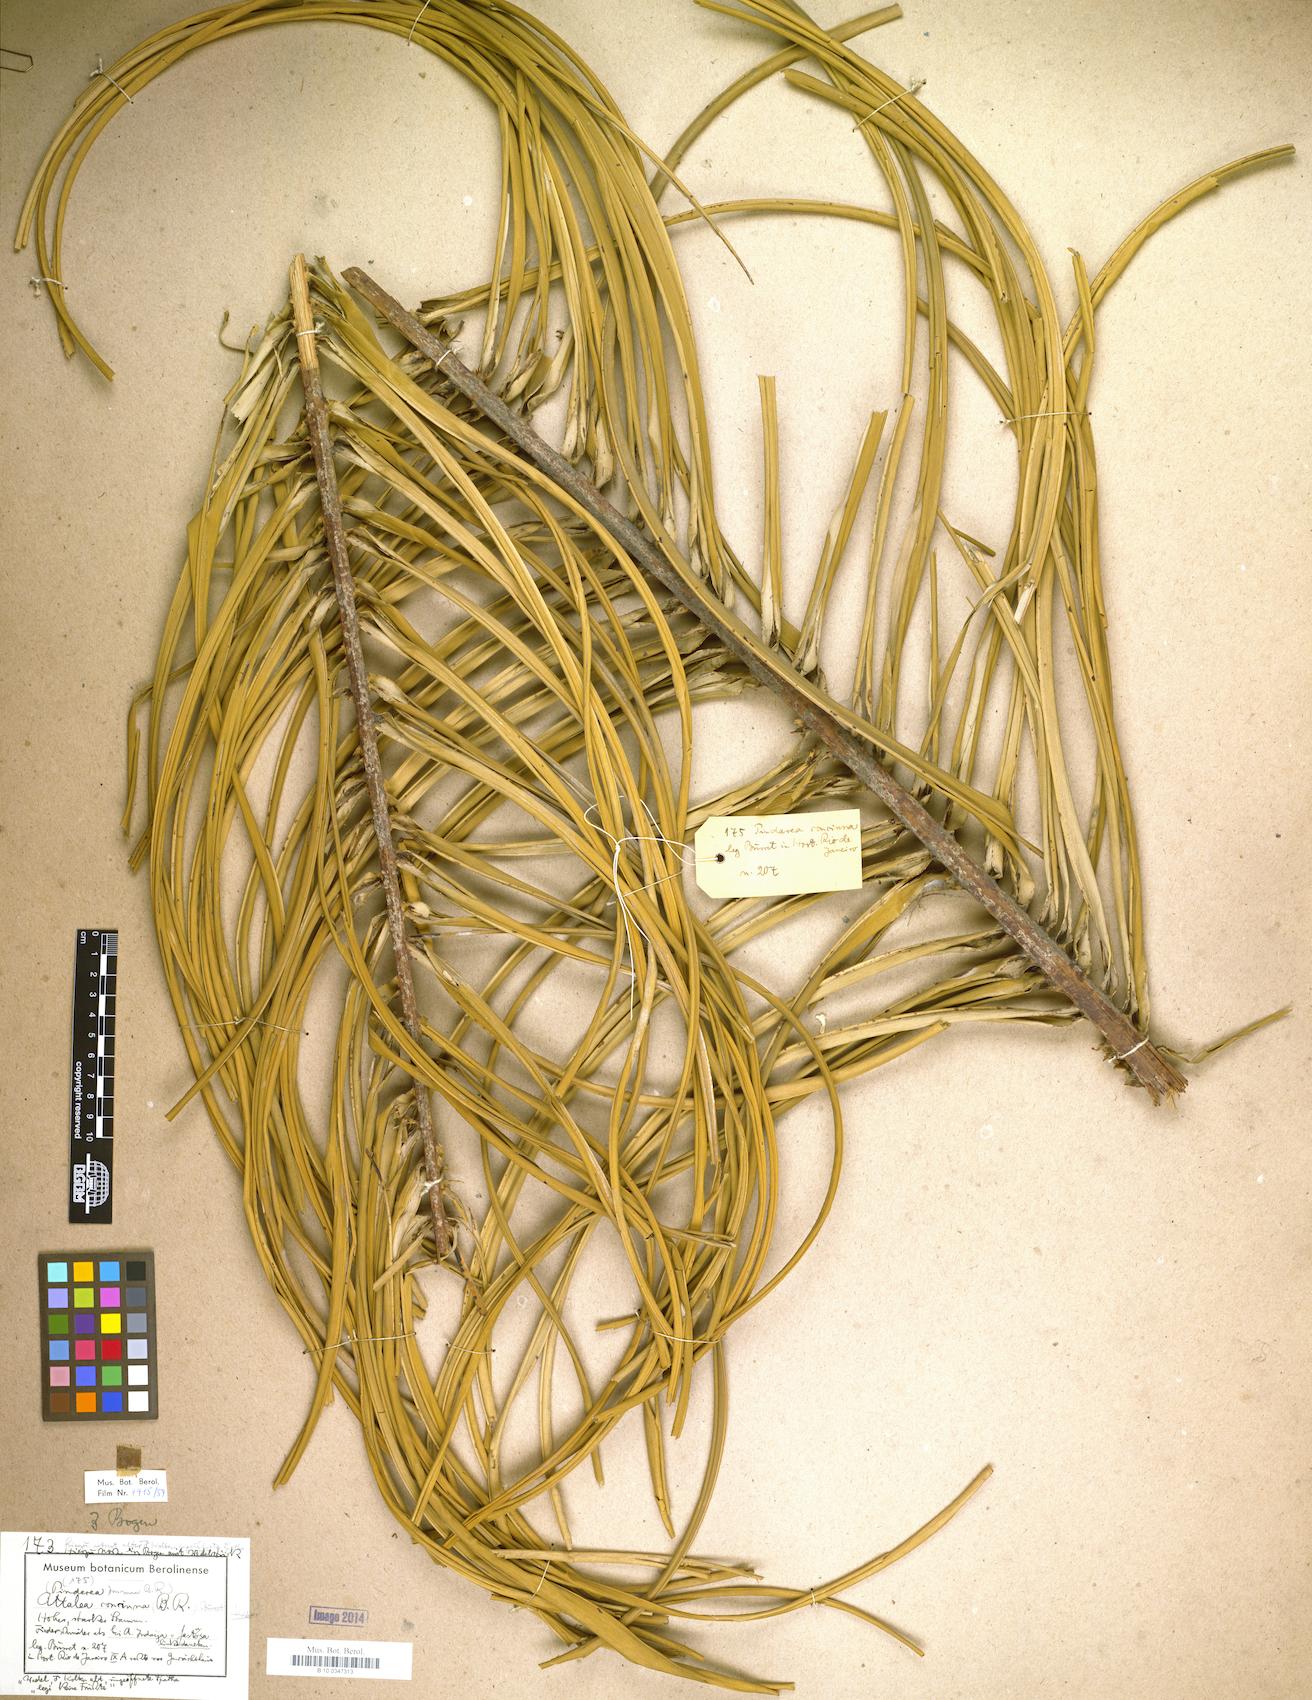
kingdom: Plantae
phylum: Tracheophyta
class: Liliopsida
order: Arecales
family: Arecaceae
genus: Attalea
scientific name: Attalea dubia
